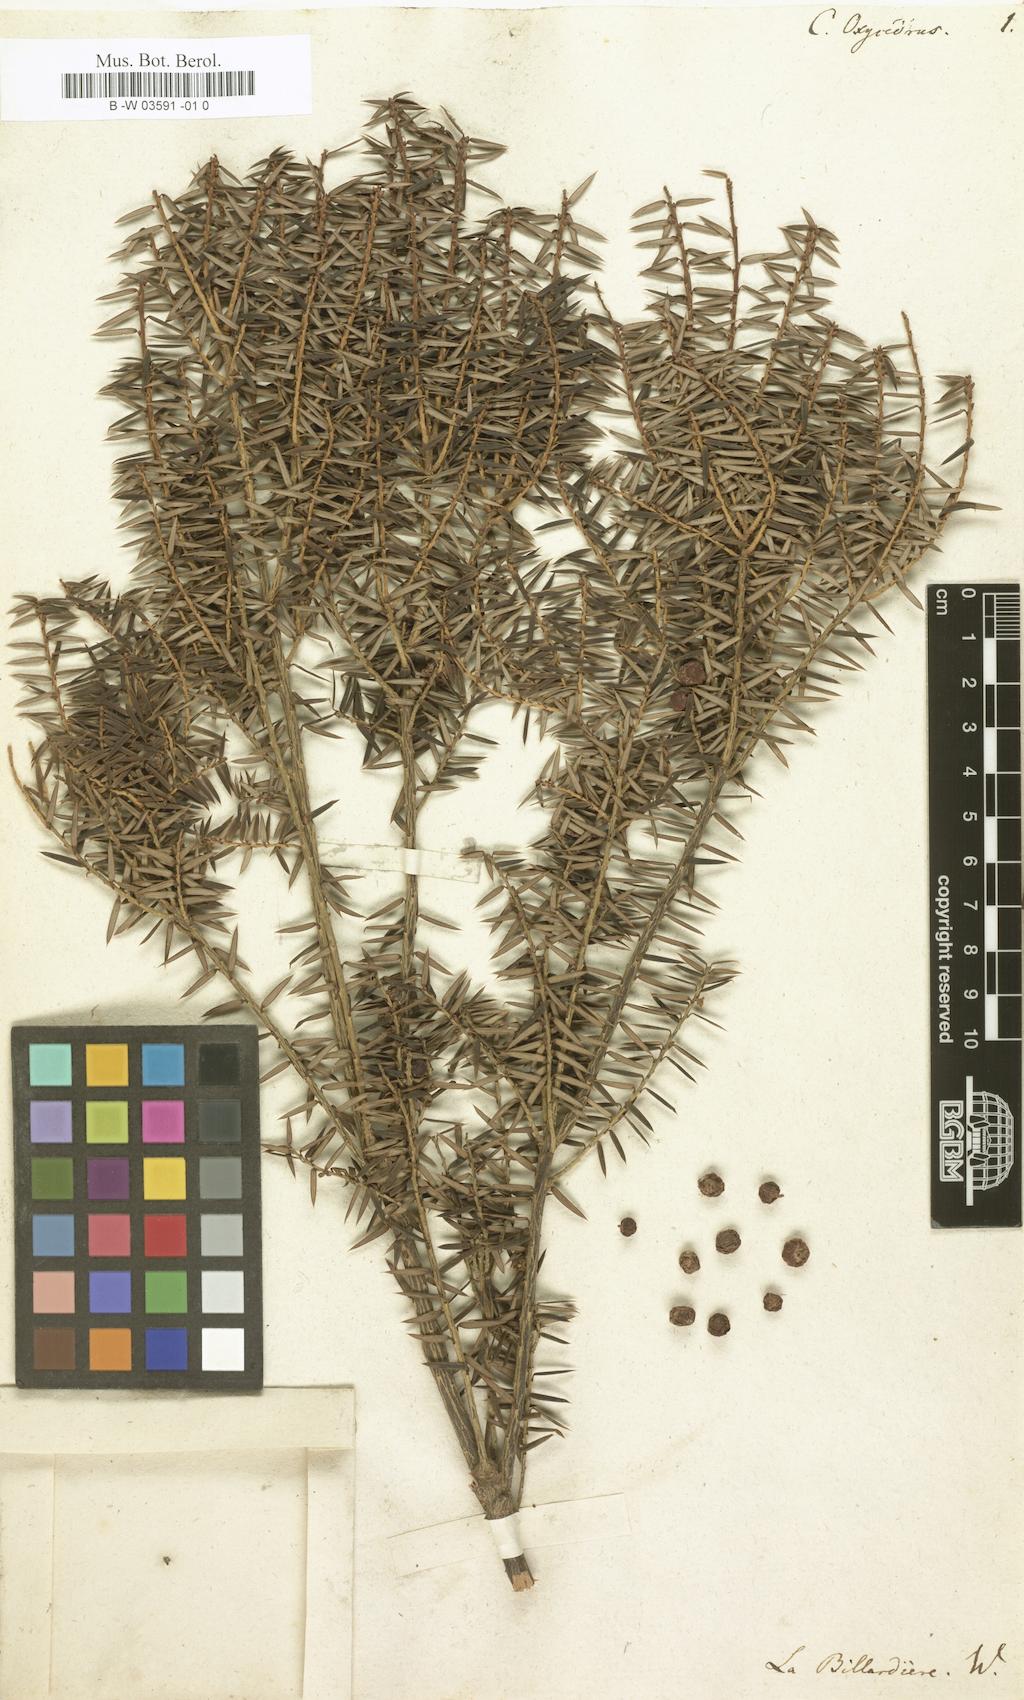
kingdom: Plantae
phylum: Tracheophyta
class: Magnoliopsida
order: Ericales
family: Ericaceae
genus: Leptecophylla
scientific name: Leptecophylla oxycedrus
